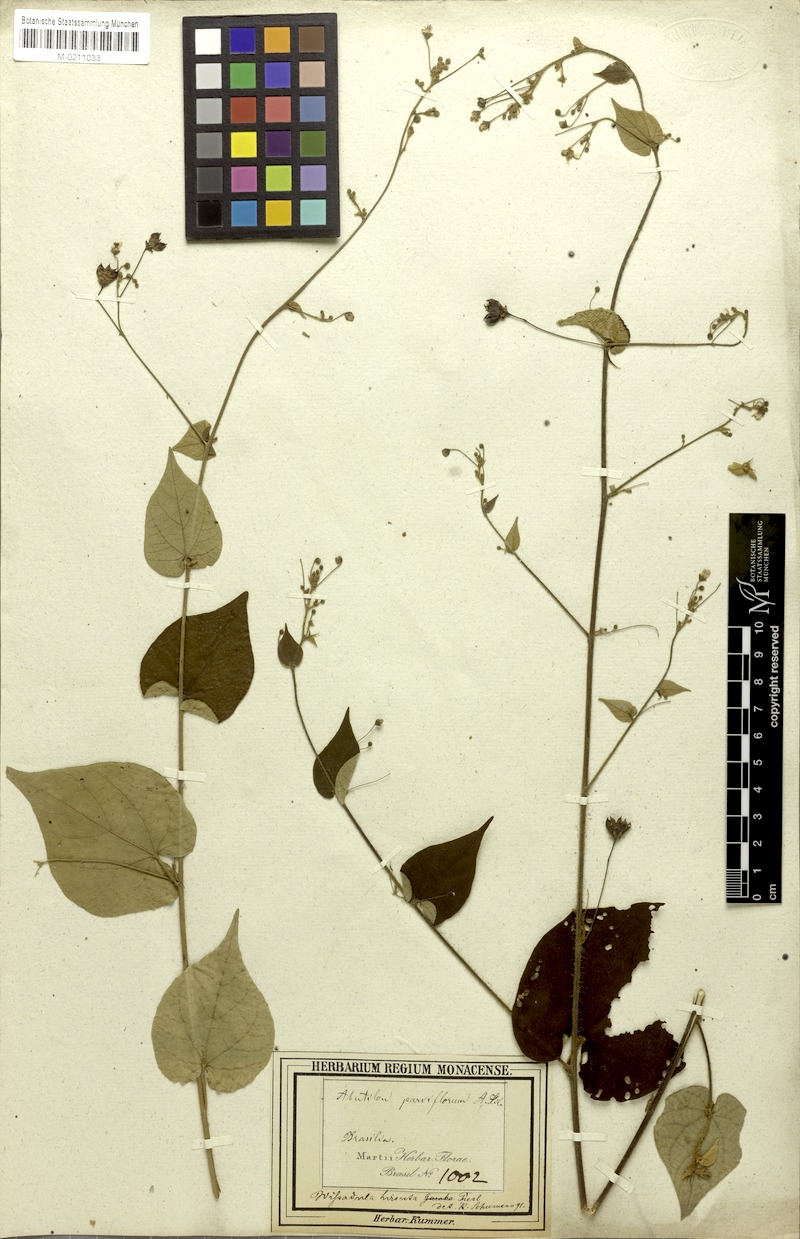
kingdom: Plantae
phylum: Tracheophyta
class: Magnoliopsida
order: Malvales
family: Malvaceae
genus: Wissadula
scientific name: Wissadula amplissima
